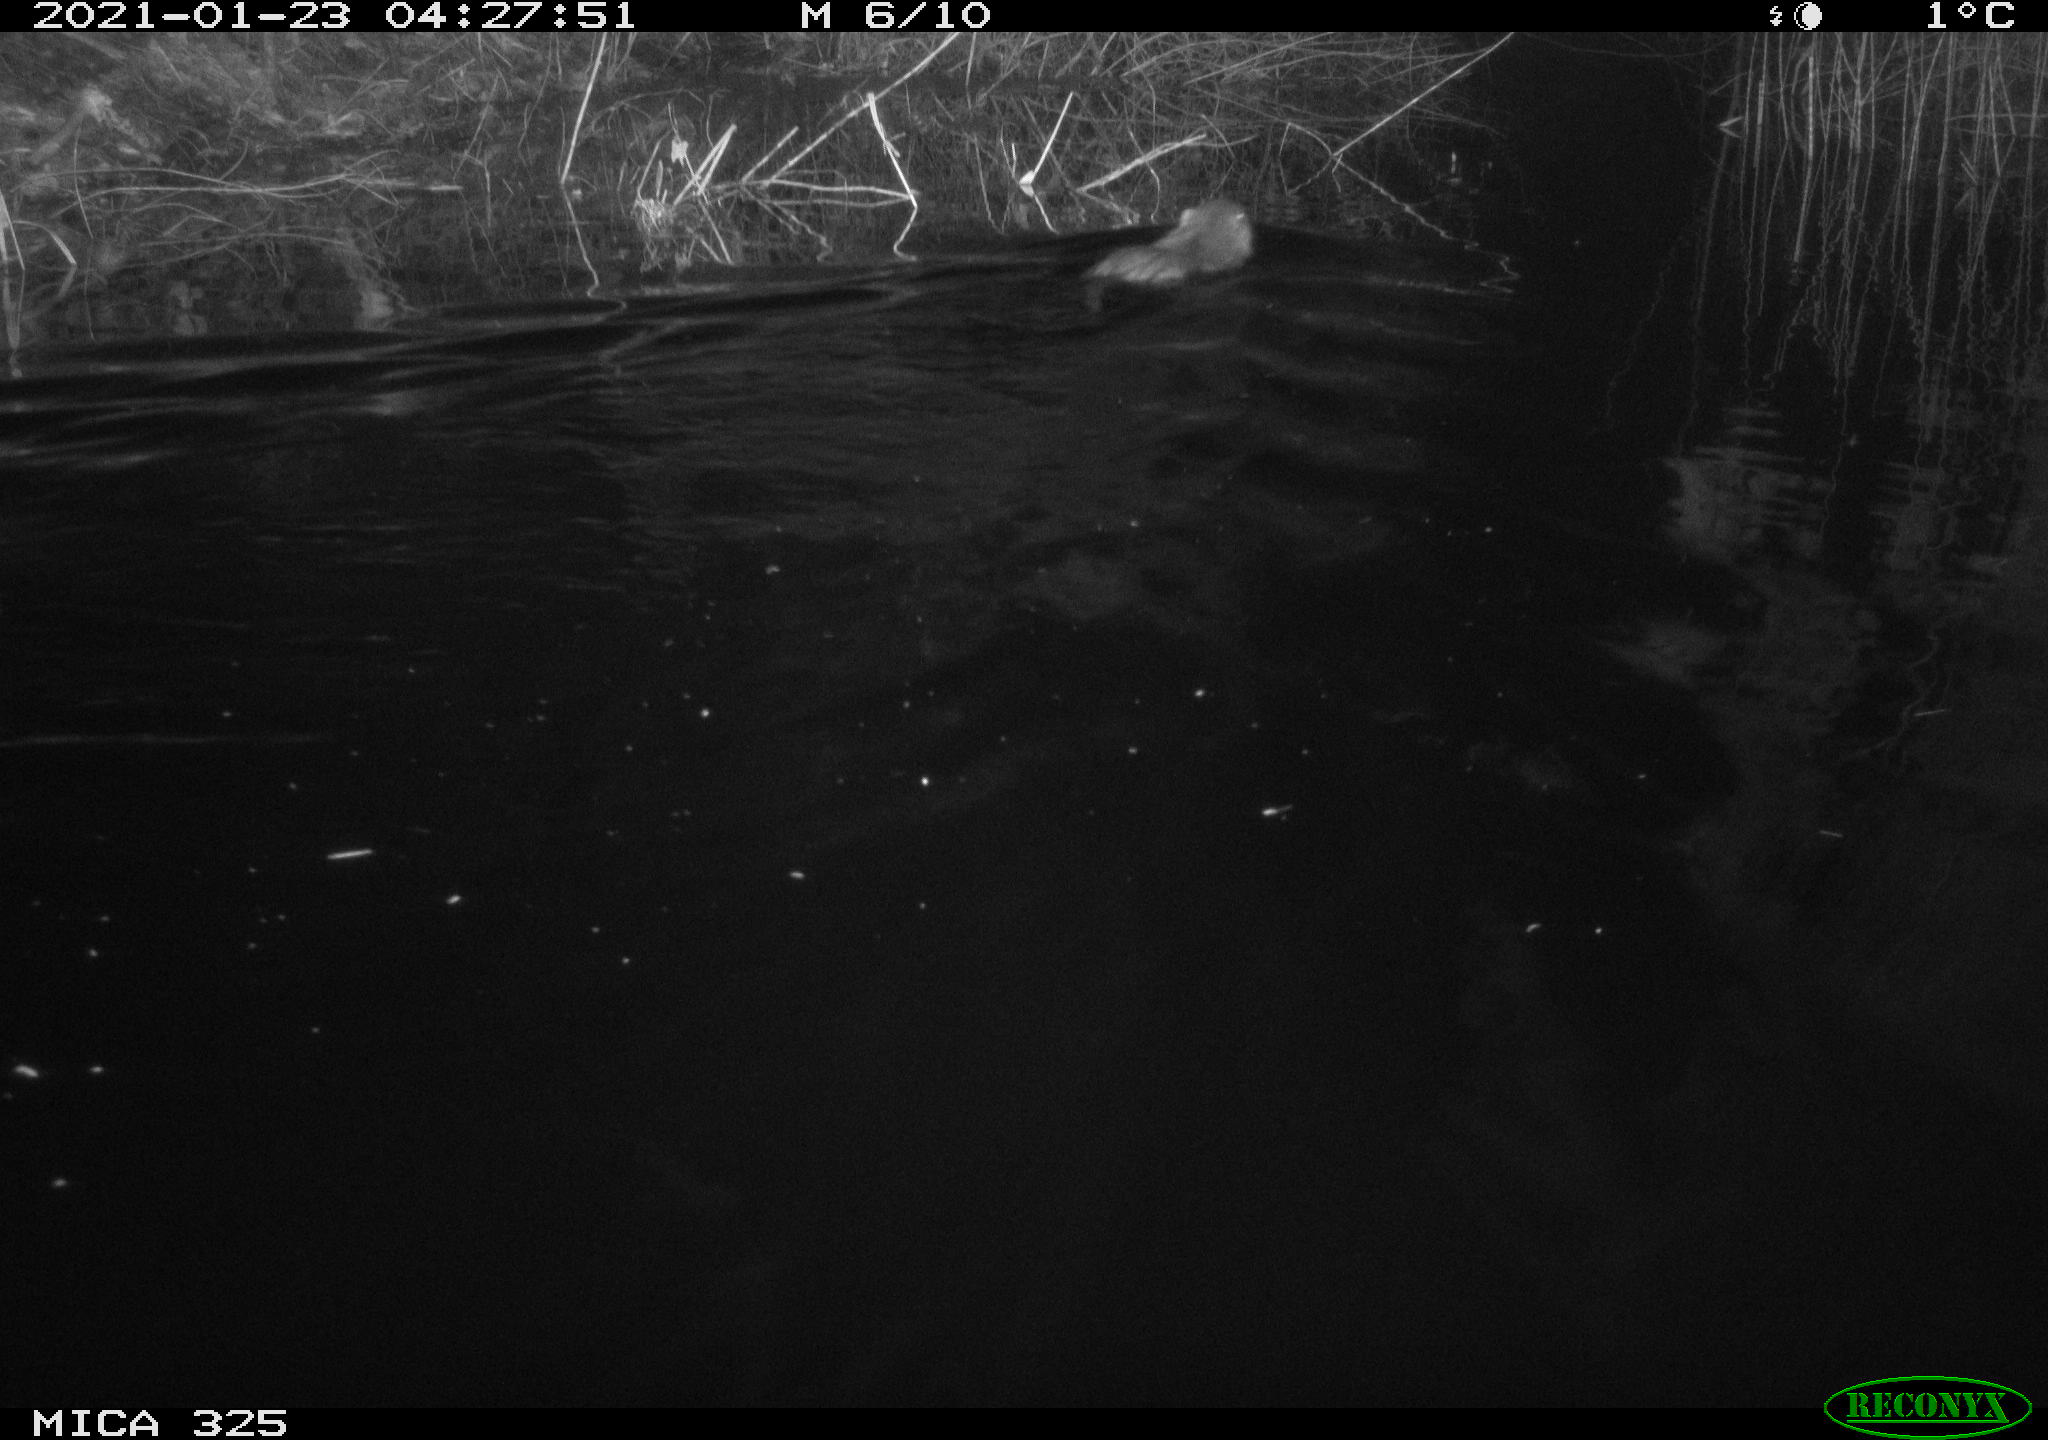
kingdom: Animalia
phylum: Chordata
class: Mammalia
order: Rodentia
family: Myocastoridae
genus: Myocastor
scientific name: Myocastor coypus
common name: Coypu
